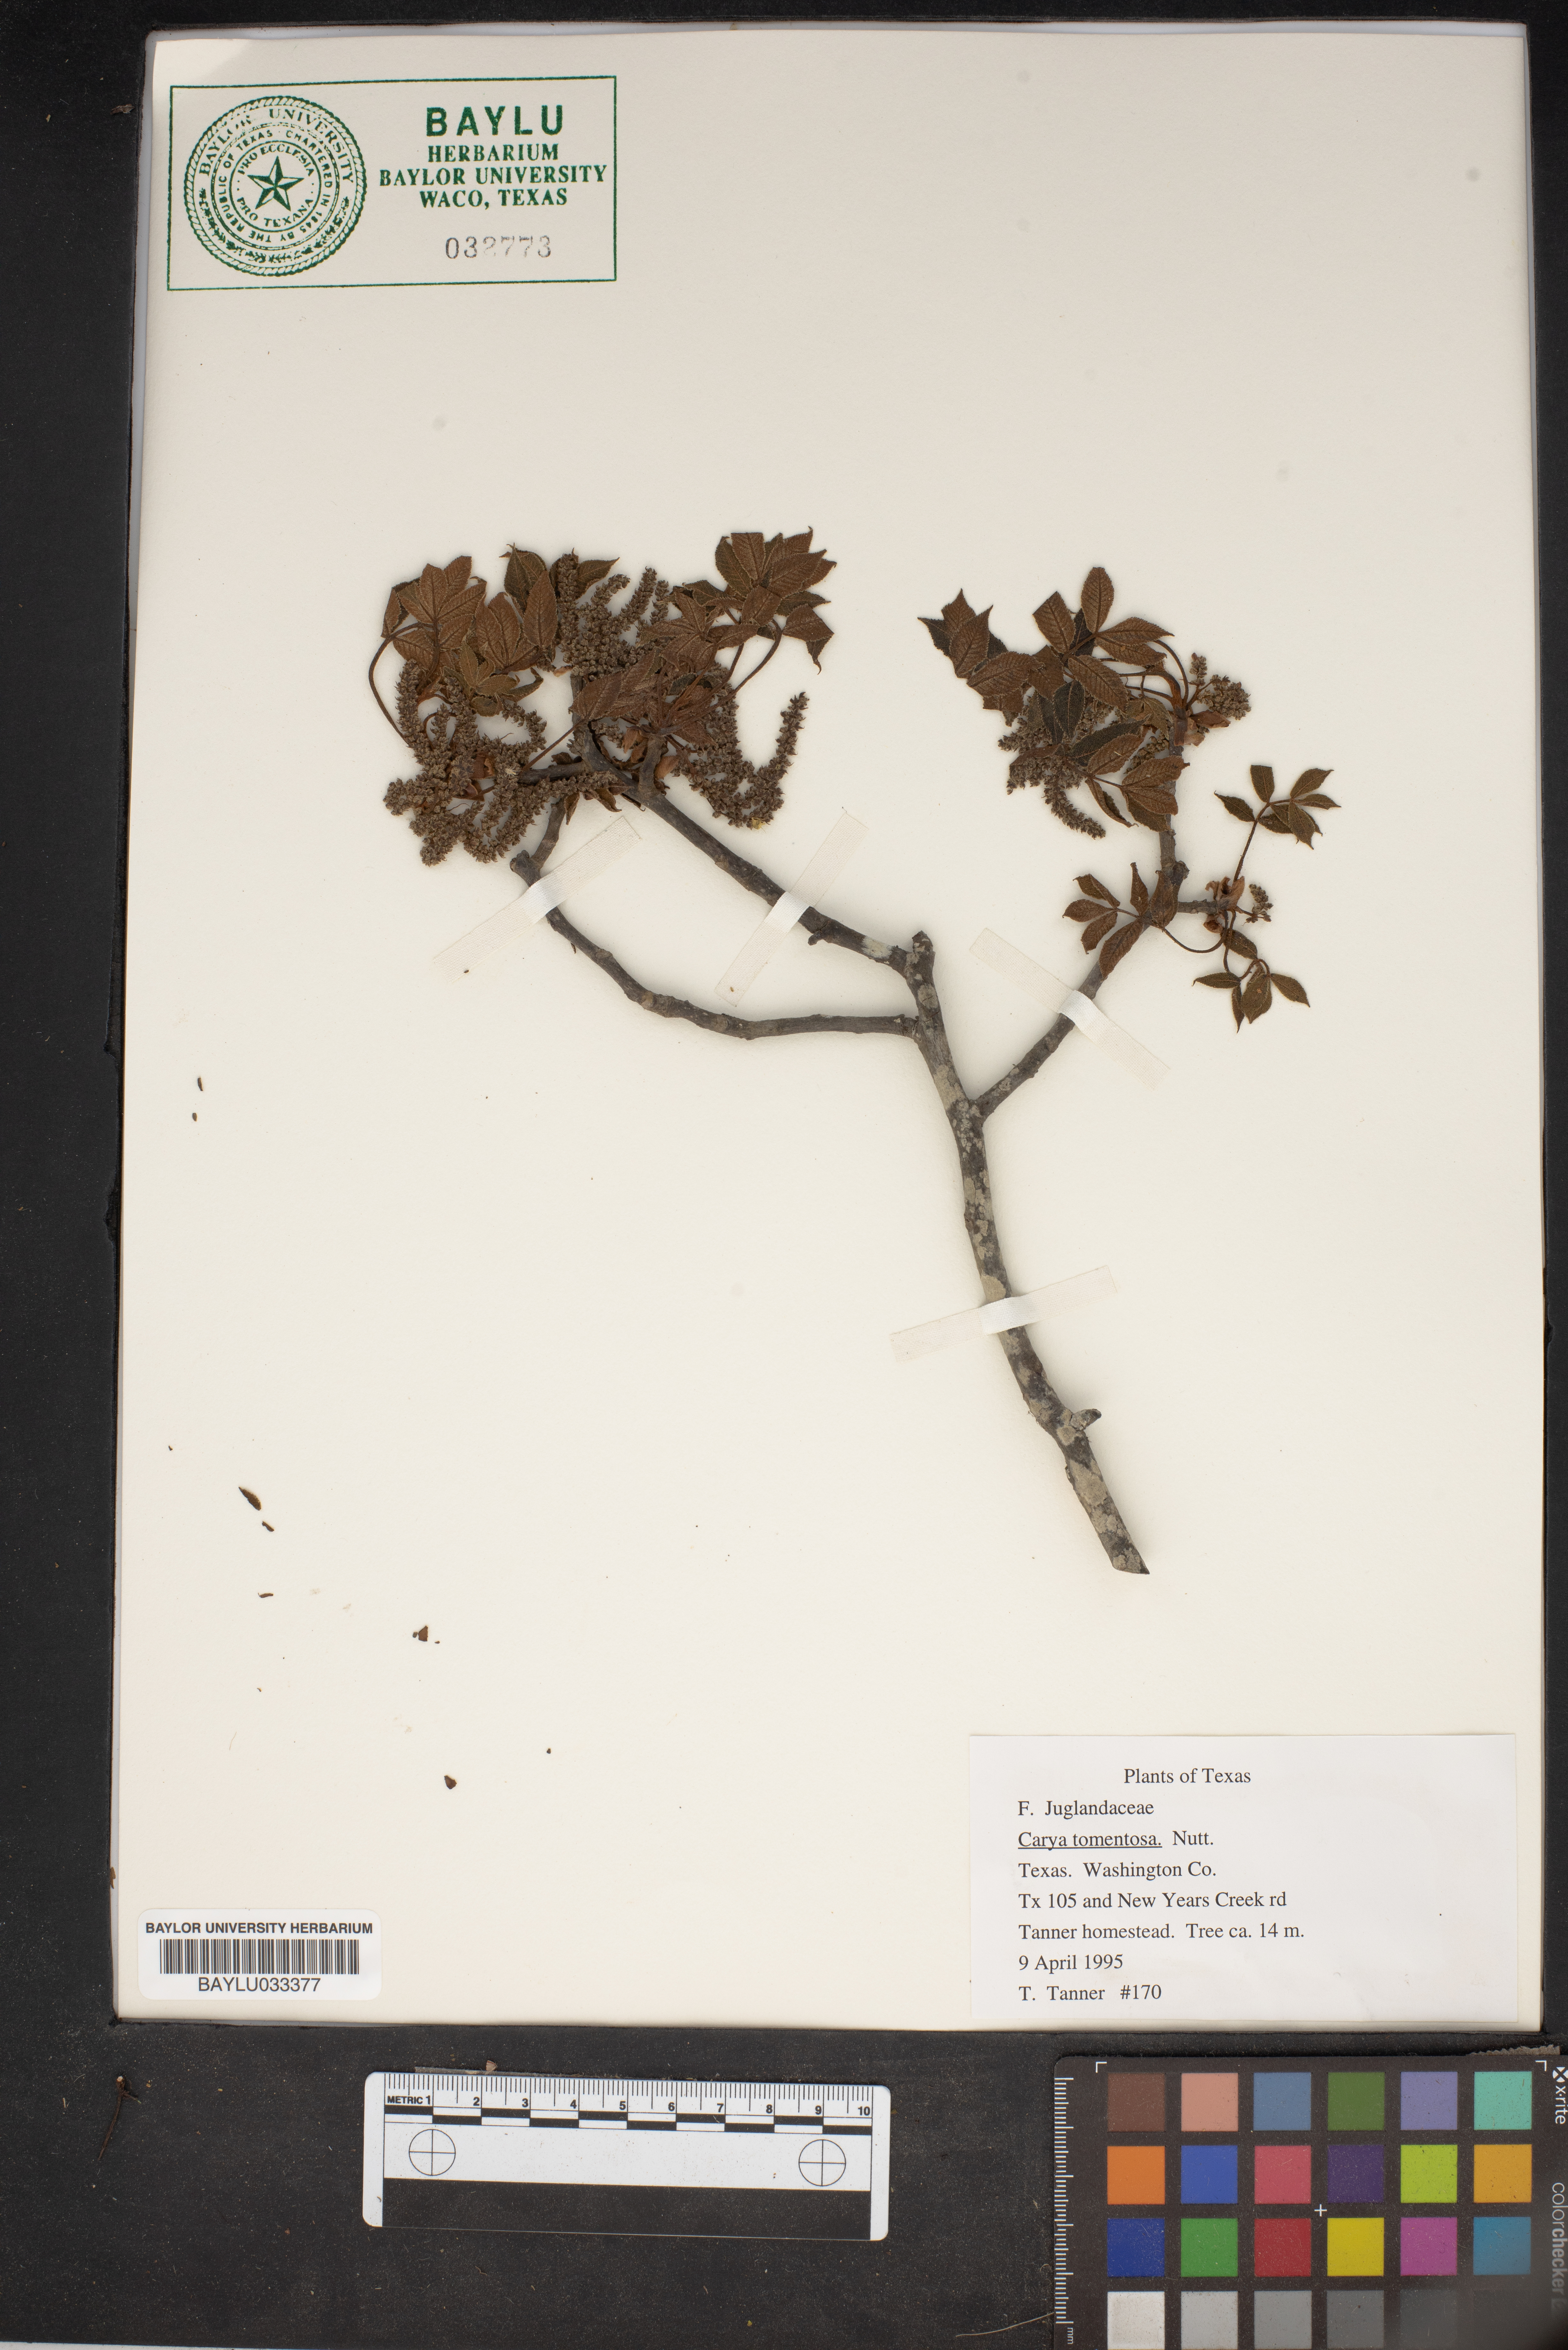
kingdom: Plantae
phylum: Tracheophyta
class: Magnoliopsida
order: Fagales
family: Juglandaceae
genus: Carya
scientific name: Carya alba
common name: Mockernut hickory
